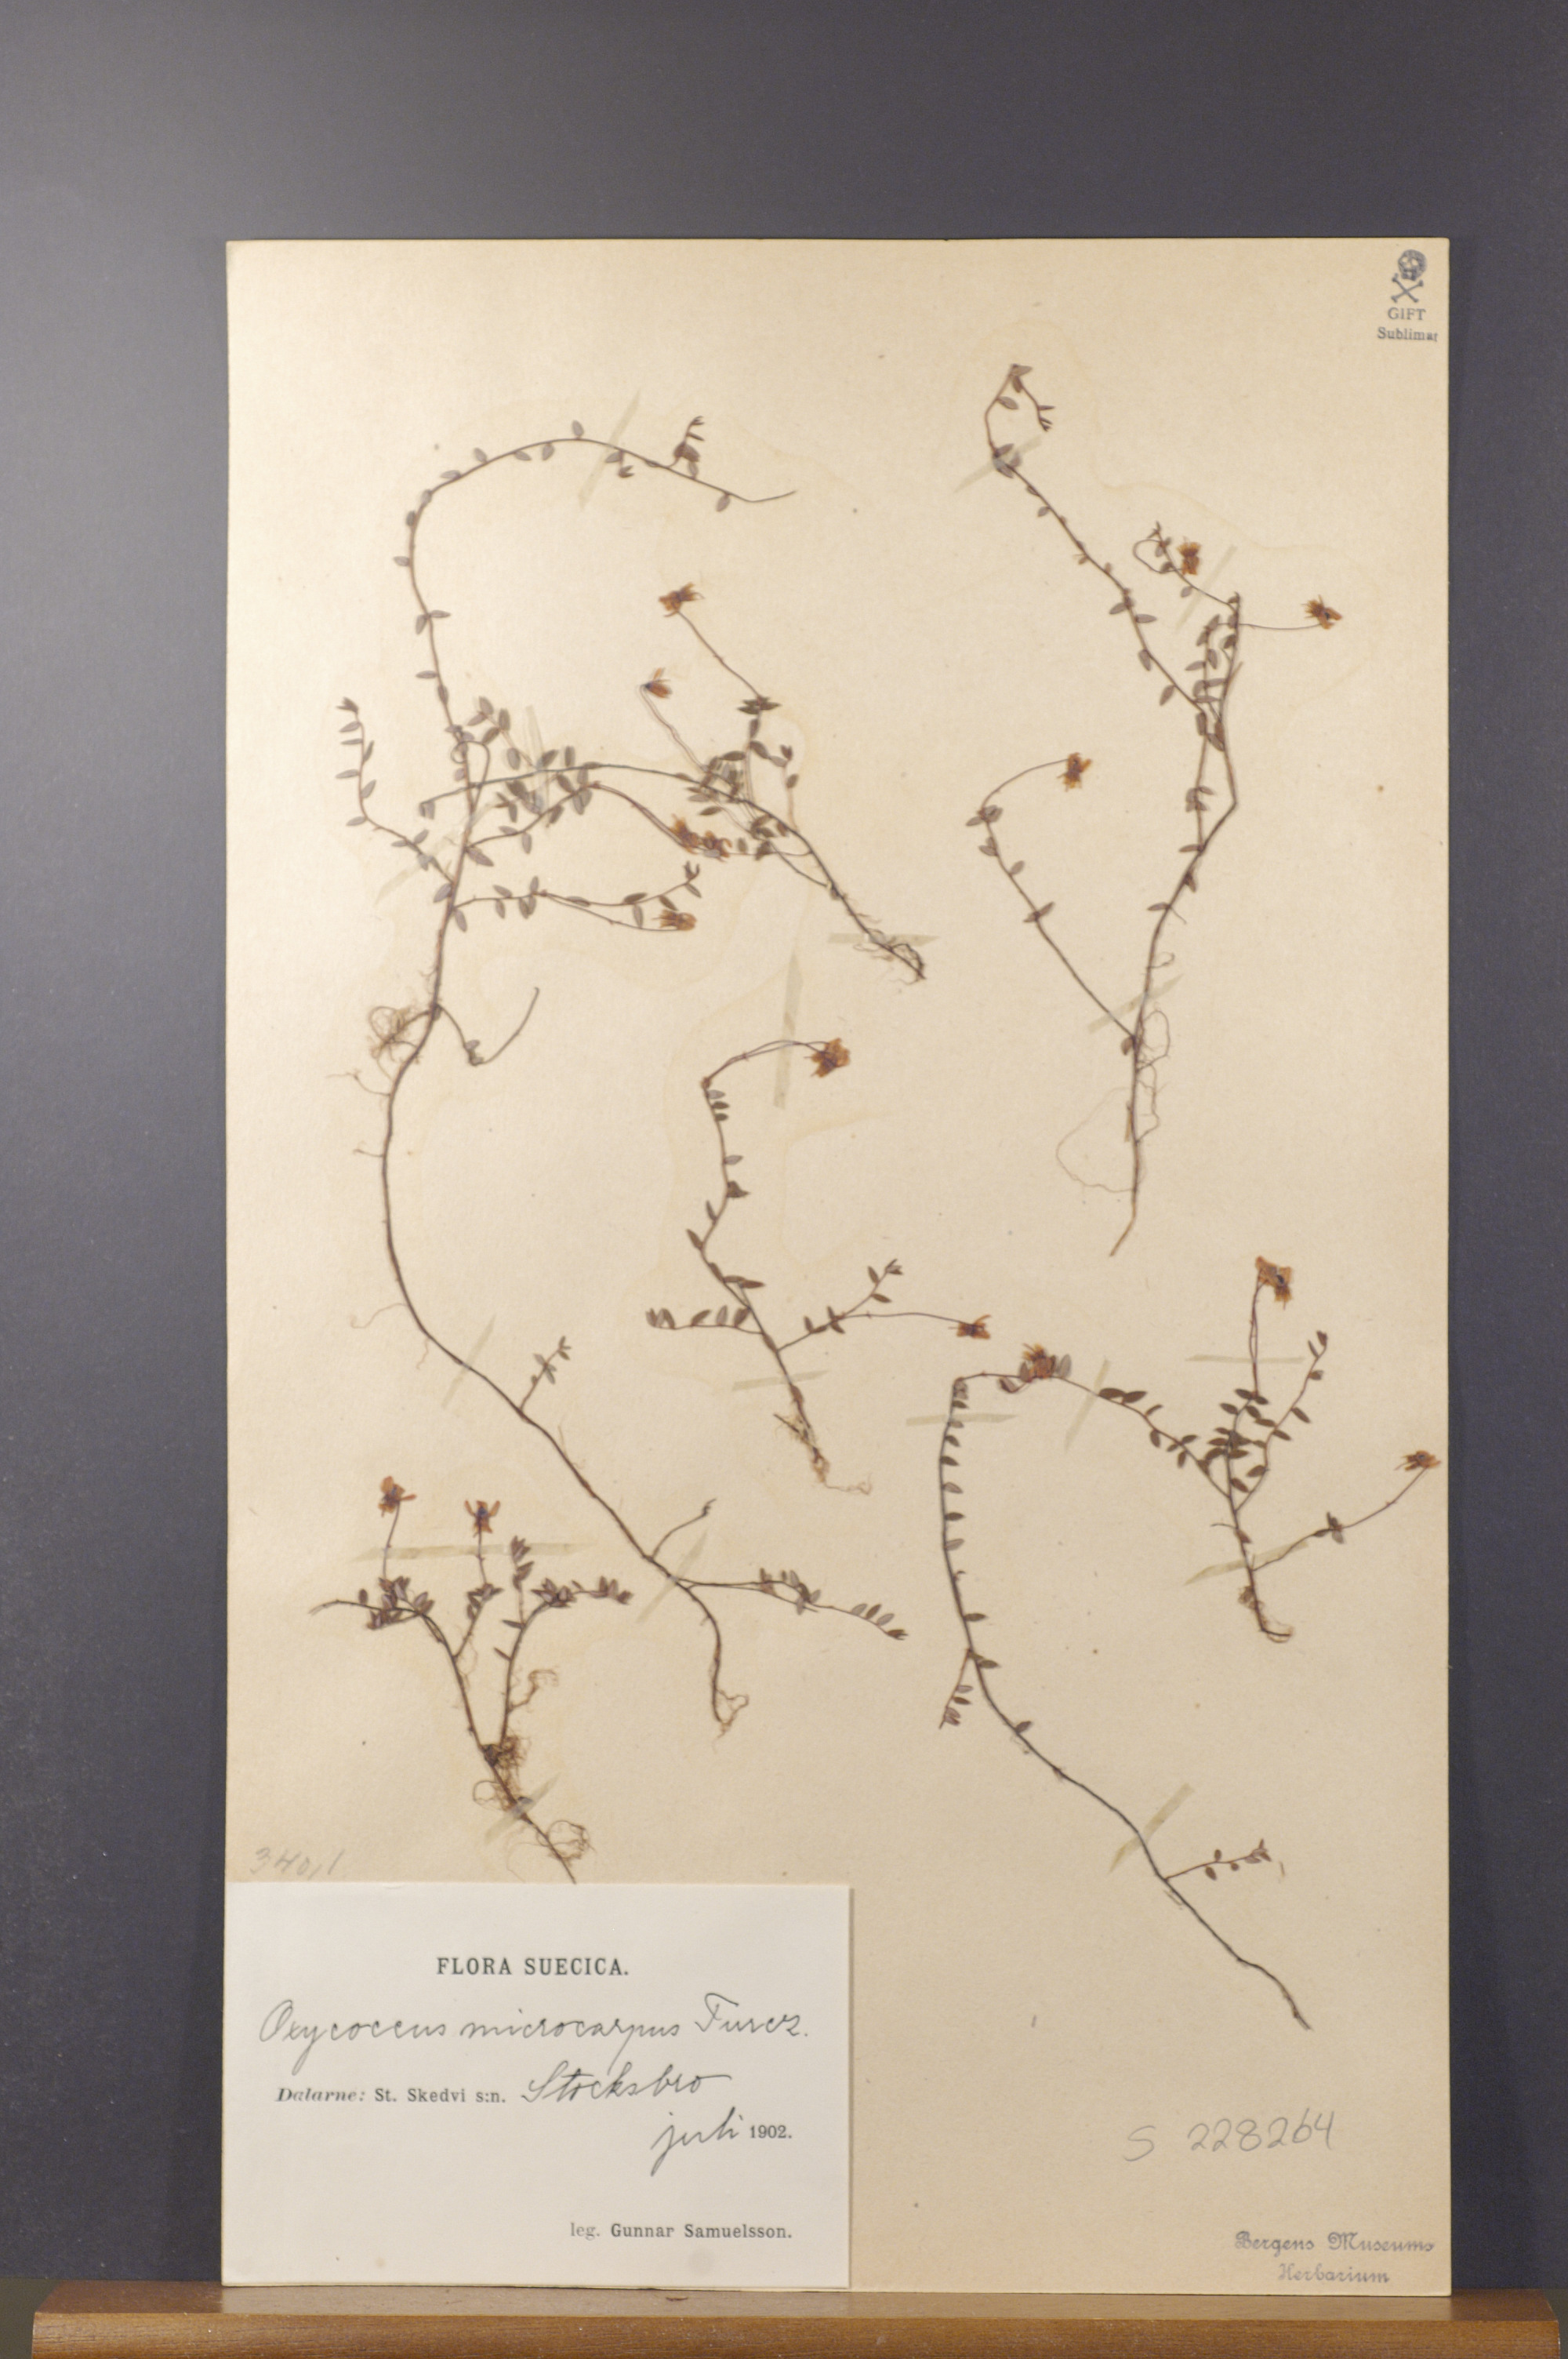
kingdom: Plantae
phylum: Tracheophyta
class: Magnoliopsida
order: Ericales
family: Ericaceae
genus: Vaccinium
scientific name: Vaccinium microcarpum
